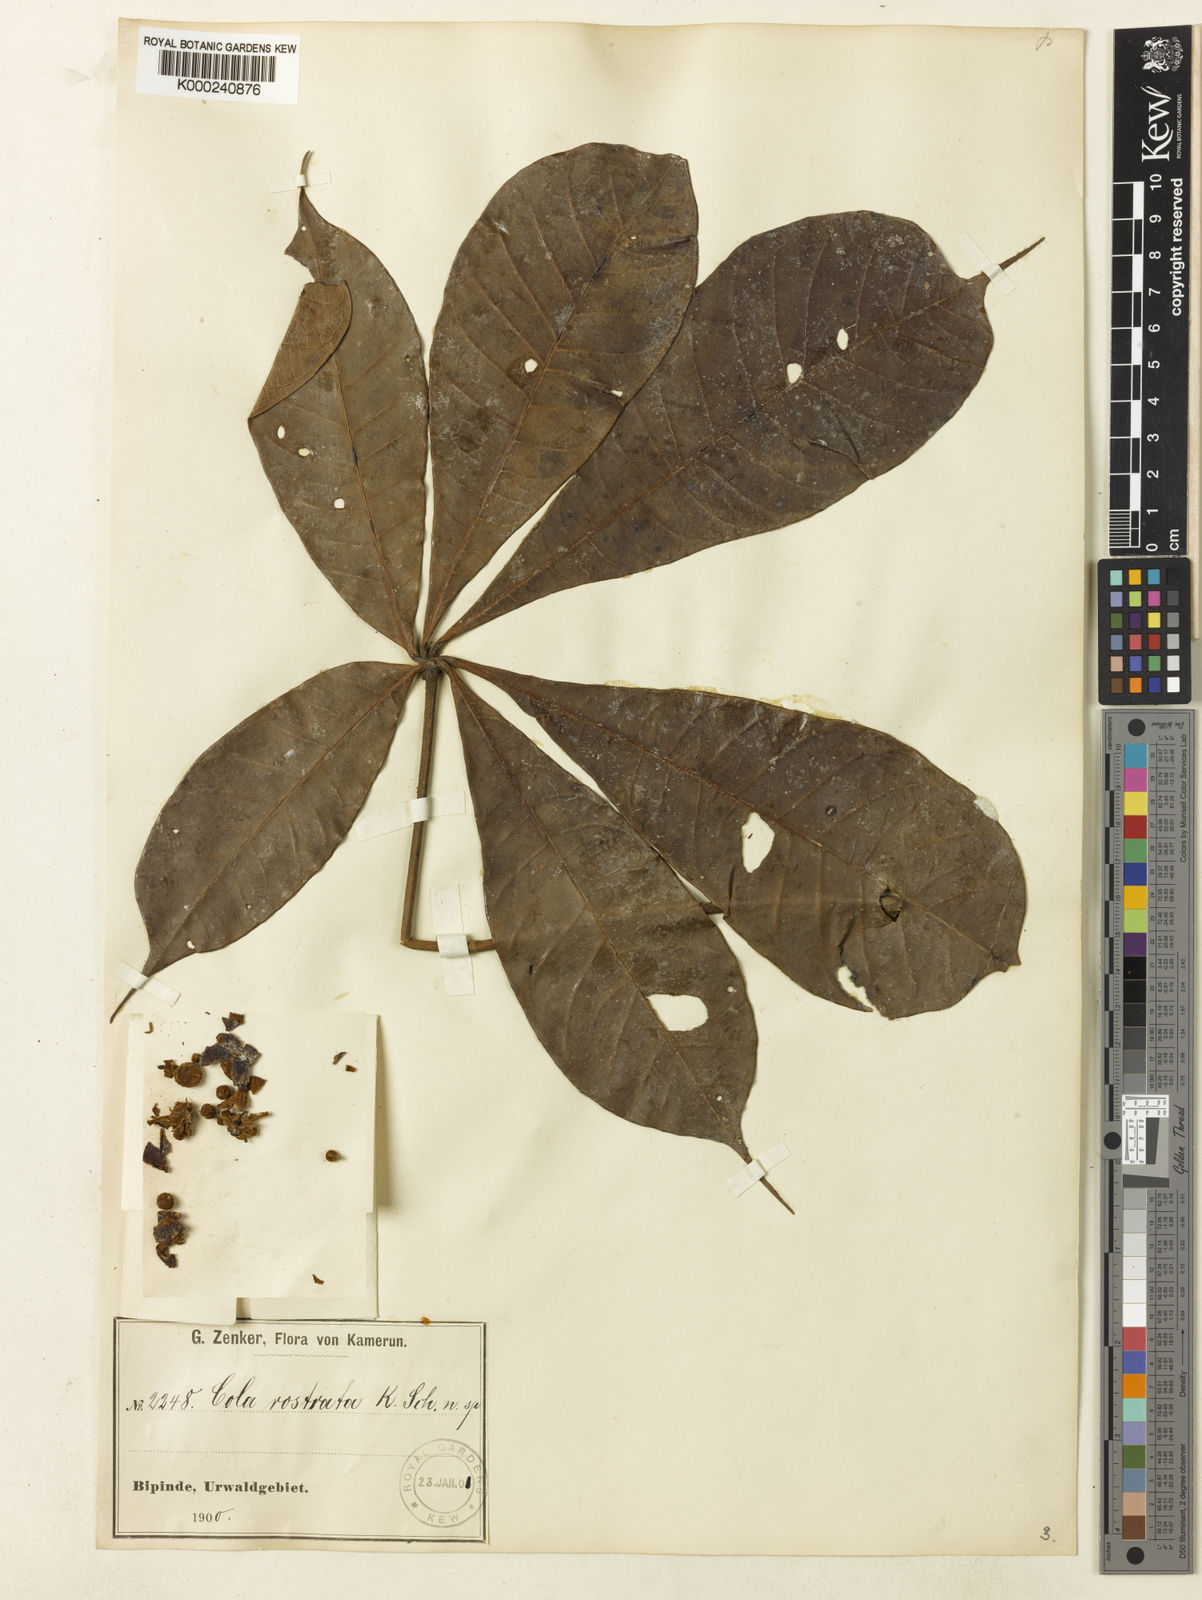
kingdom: Plantae
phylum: Tracheophyta
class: Magnoliopsida
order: Malvales
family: Malvaceae
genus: Cola
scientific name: Cola rostrata
